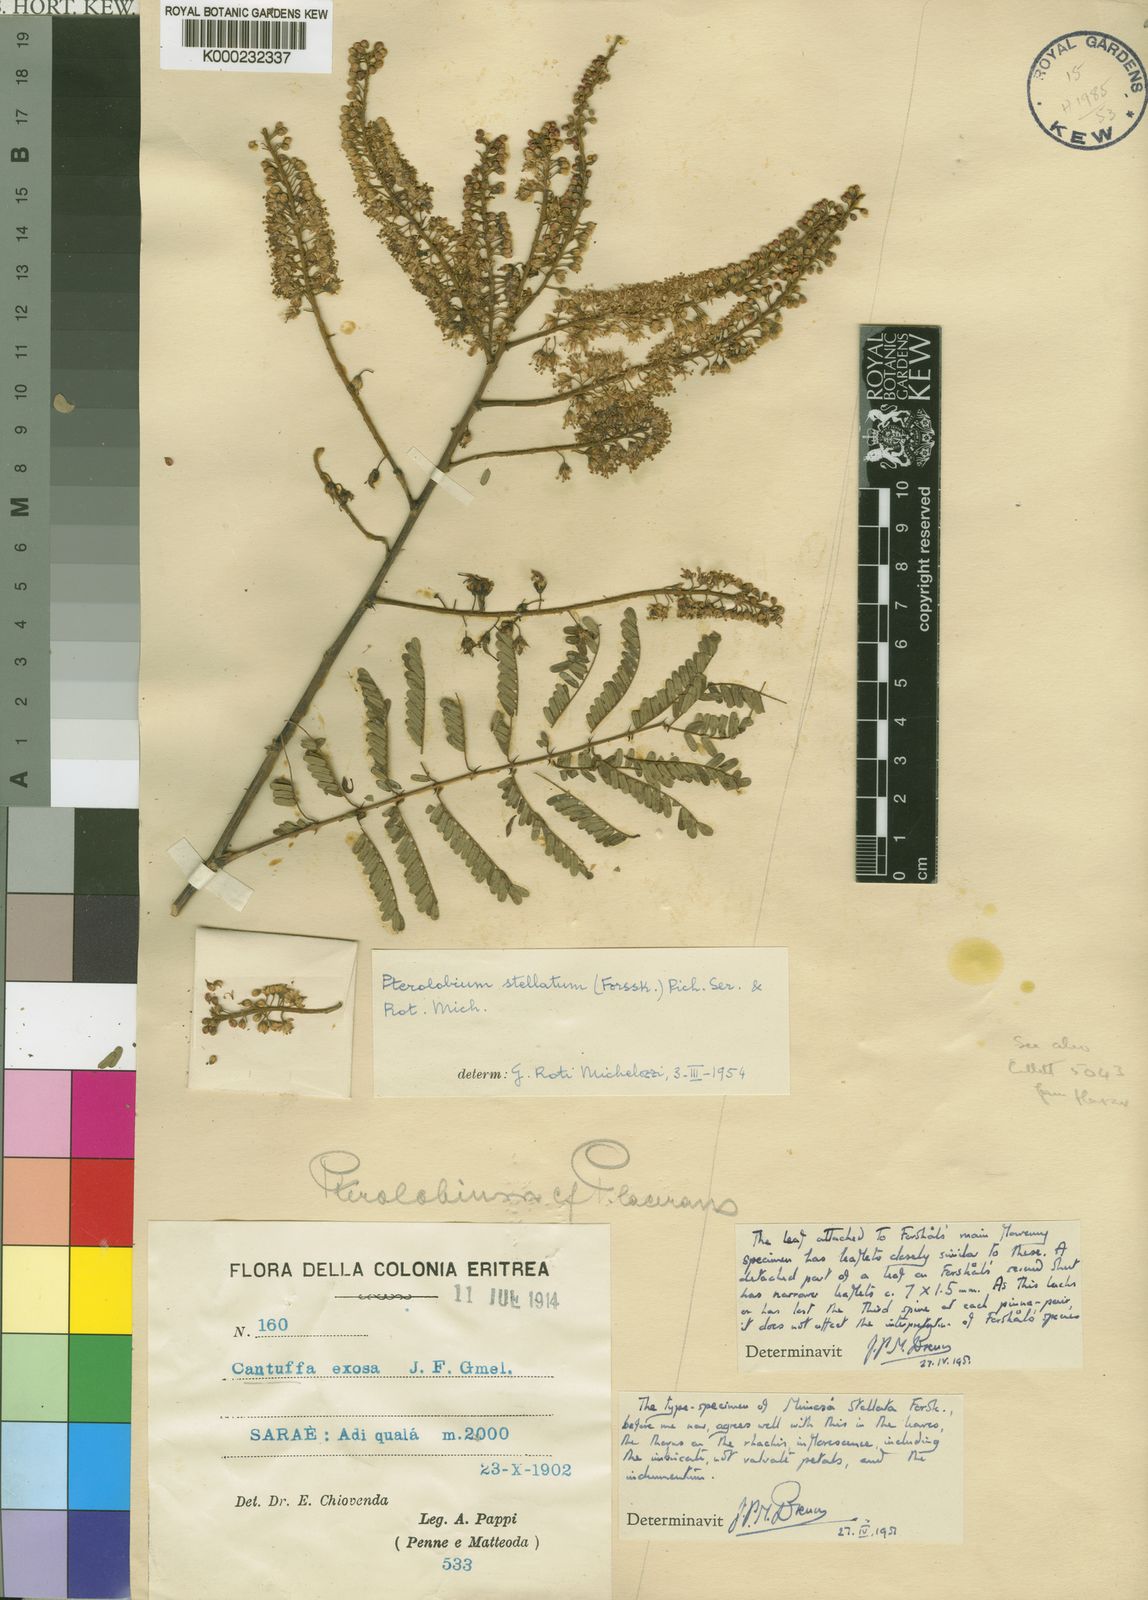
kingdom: Plantae
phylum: Tracheophyta
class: Magnoliopsida
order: Fabales
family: Fabaceae
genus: Pterolobium
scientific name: Pterolobium stellatum
